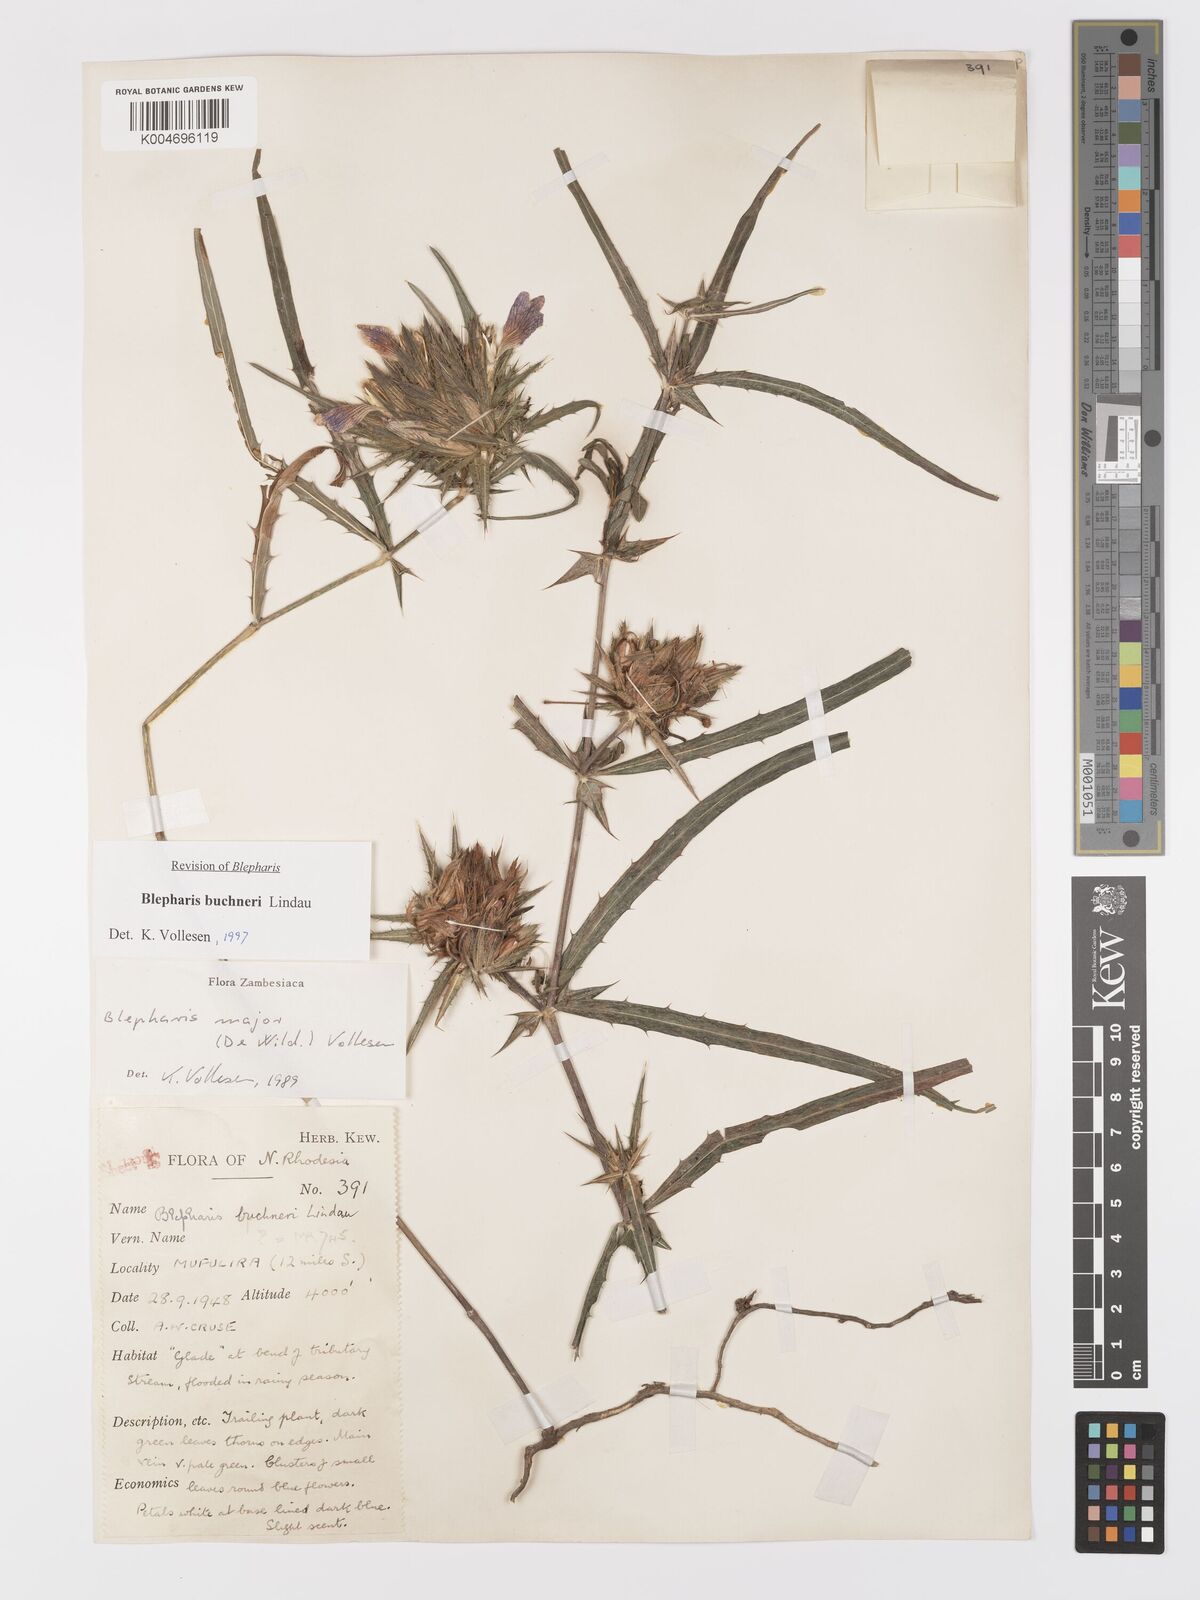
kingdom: Plantae
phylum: Tracheophyta
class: Magnoliopsida
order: Lamiales
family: Acanthaceae
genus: Blepharis
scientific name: Blepharis buchneri
